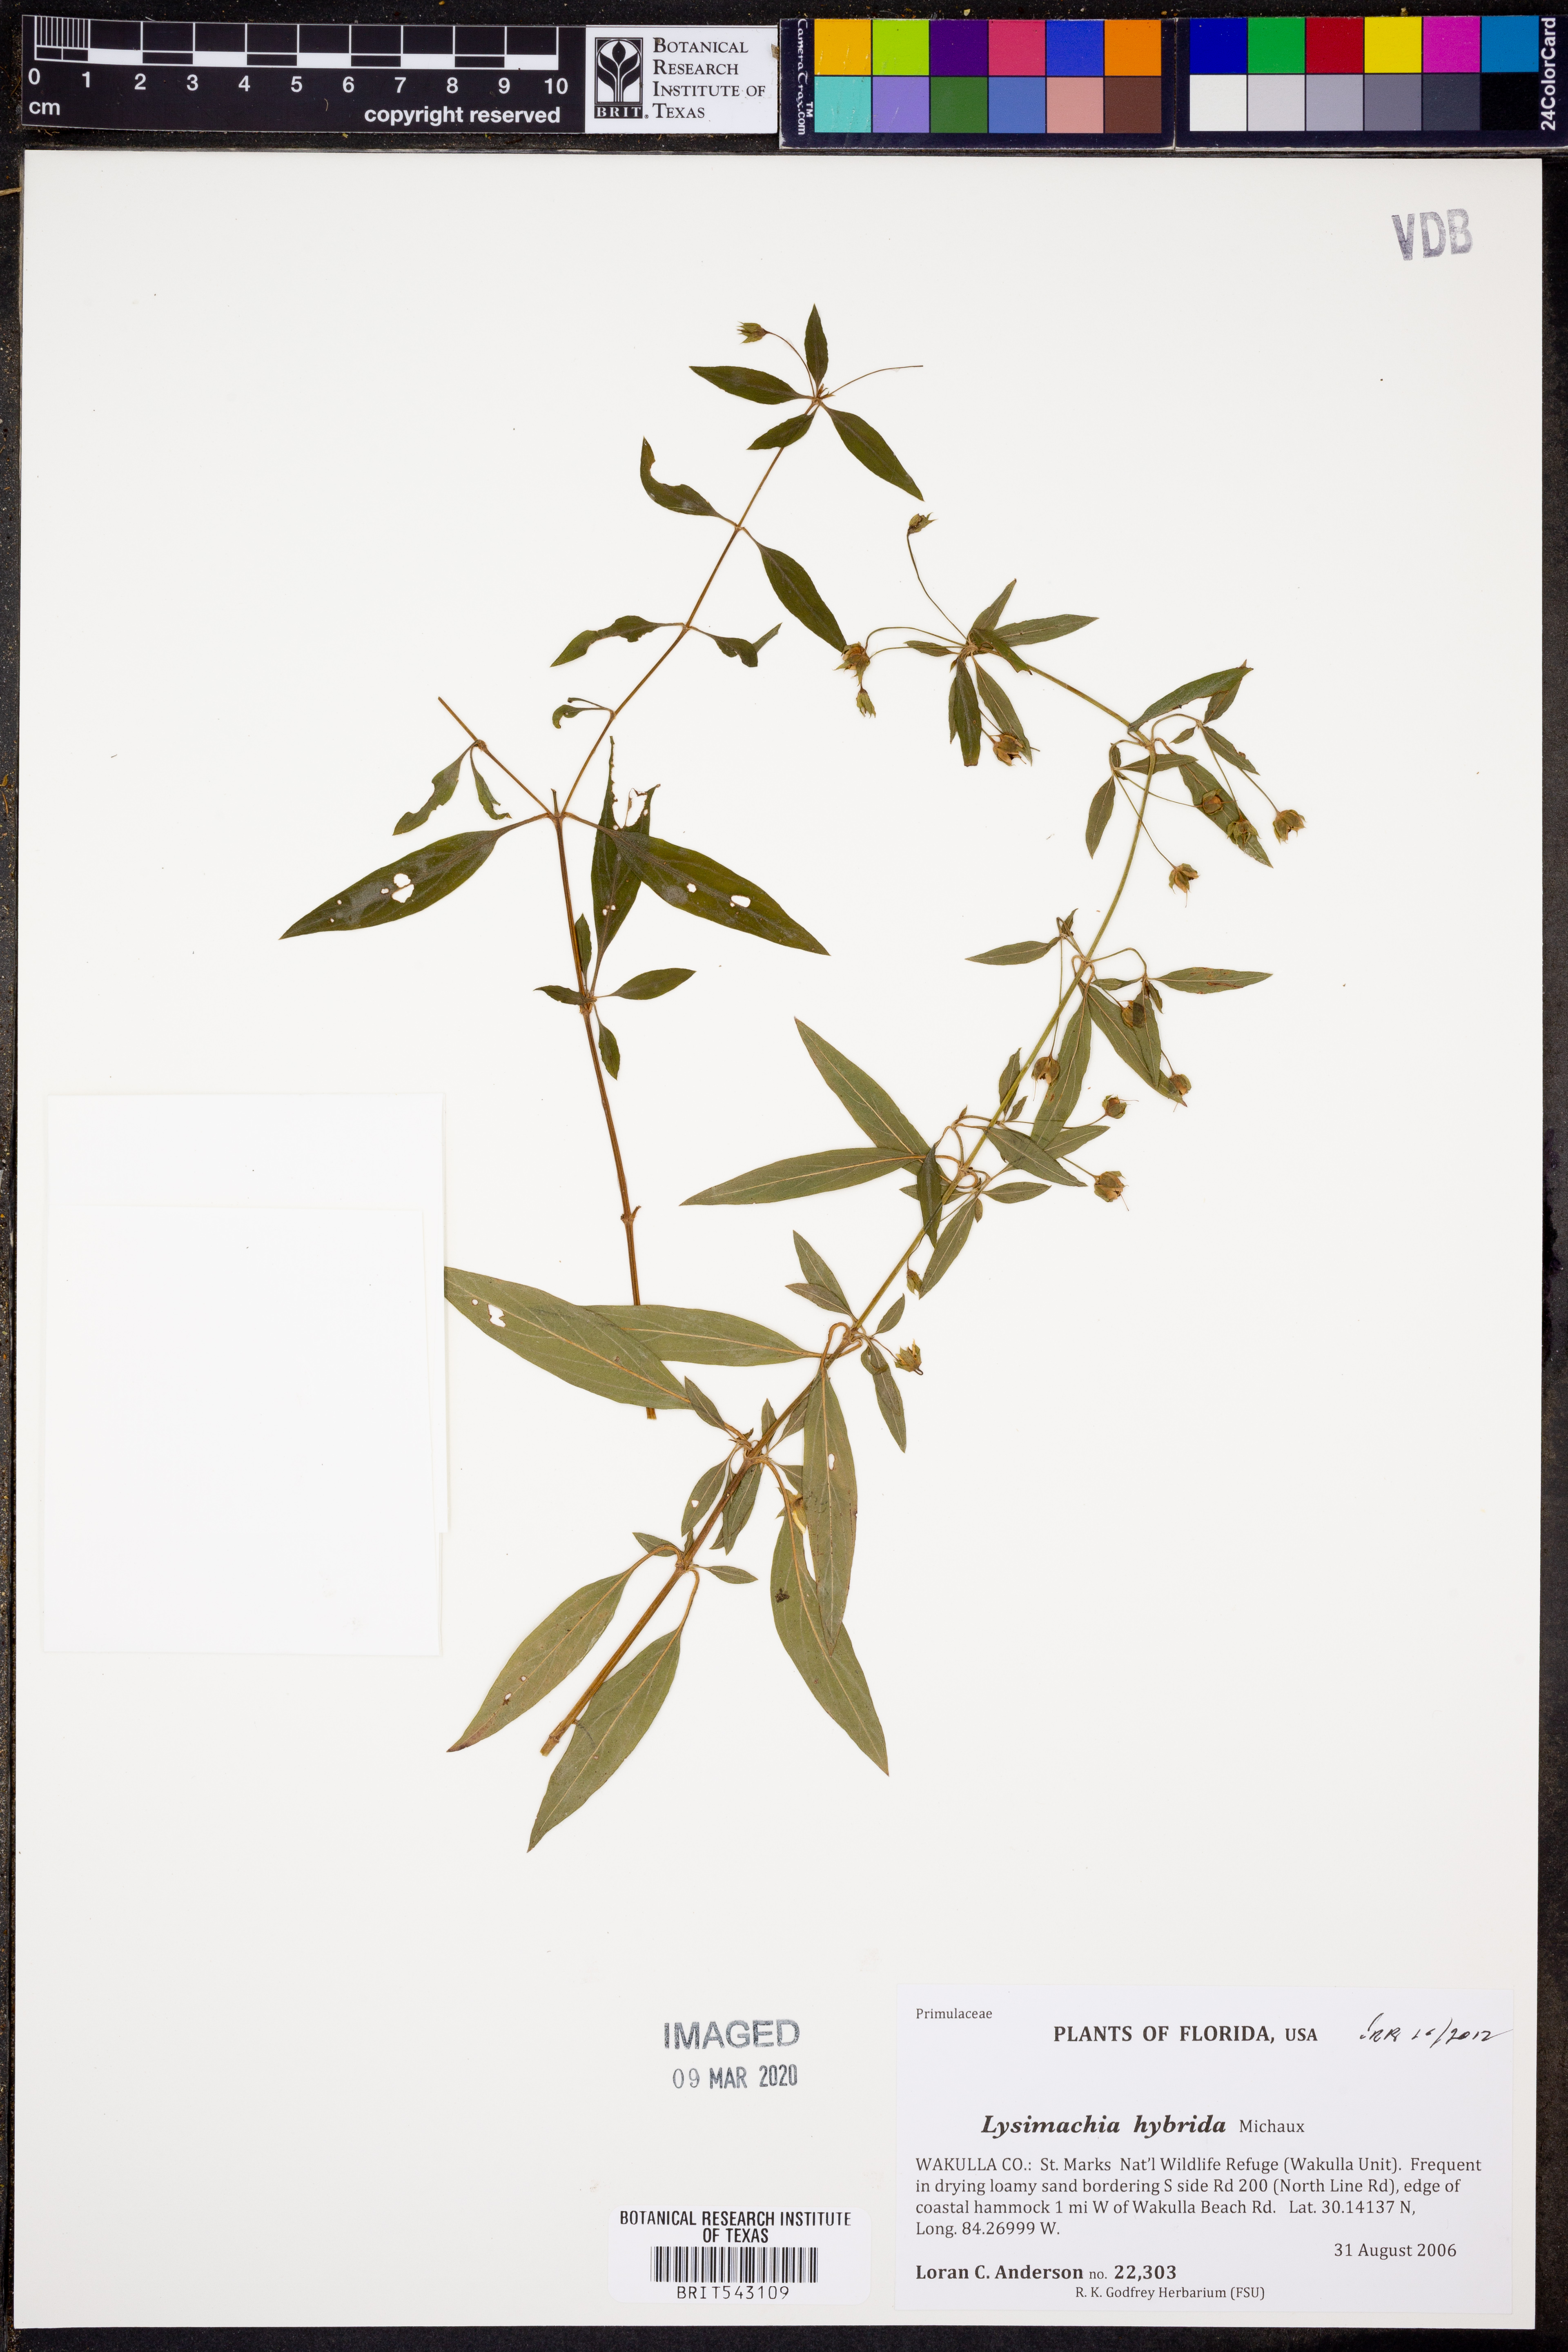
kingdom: Plantae
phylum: Tracheophyta
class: Magnoliopsida
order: Ericales
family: Primulaceae
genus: Lysimachia
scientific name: Lysimachia hybrida
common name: Lowland loosestrife
